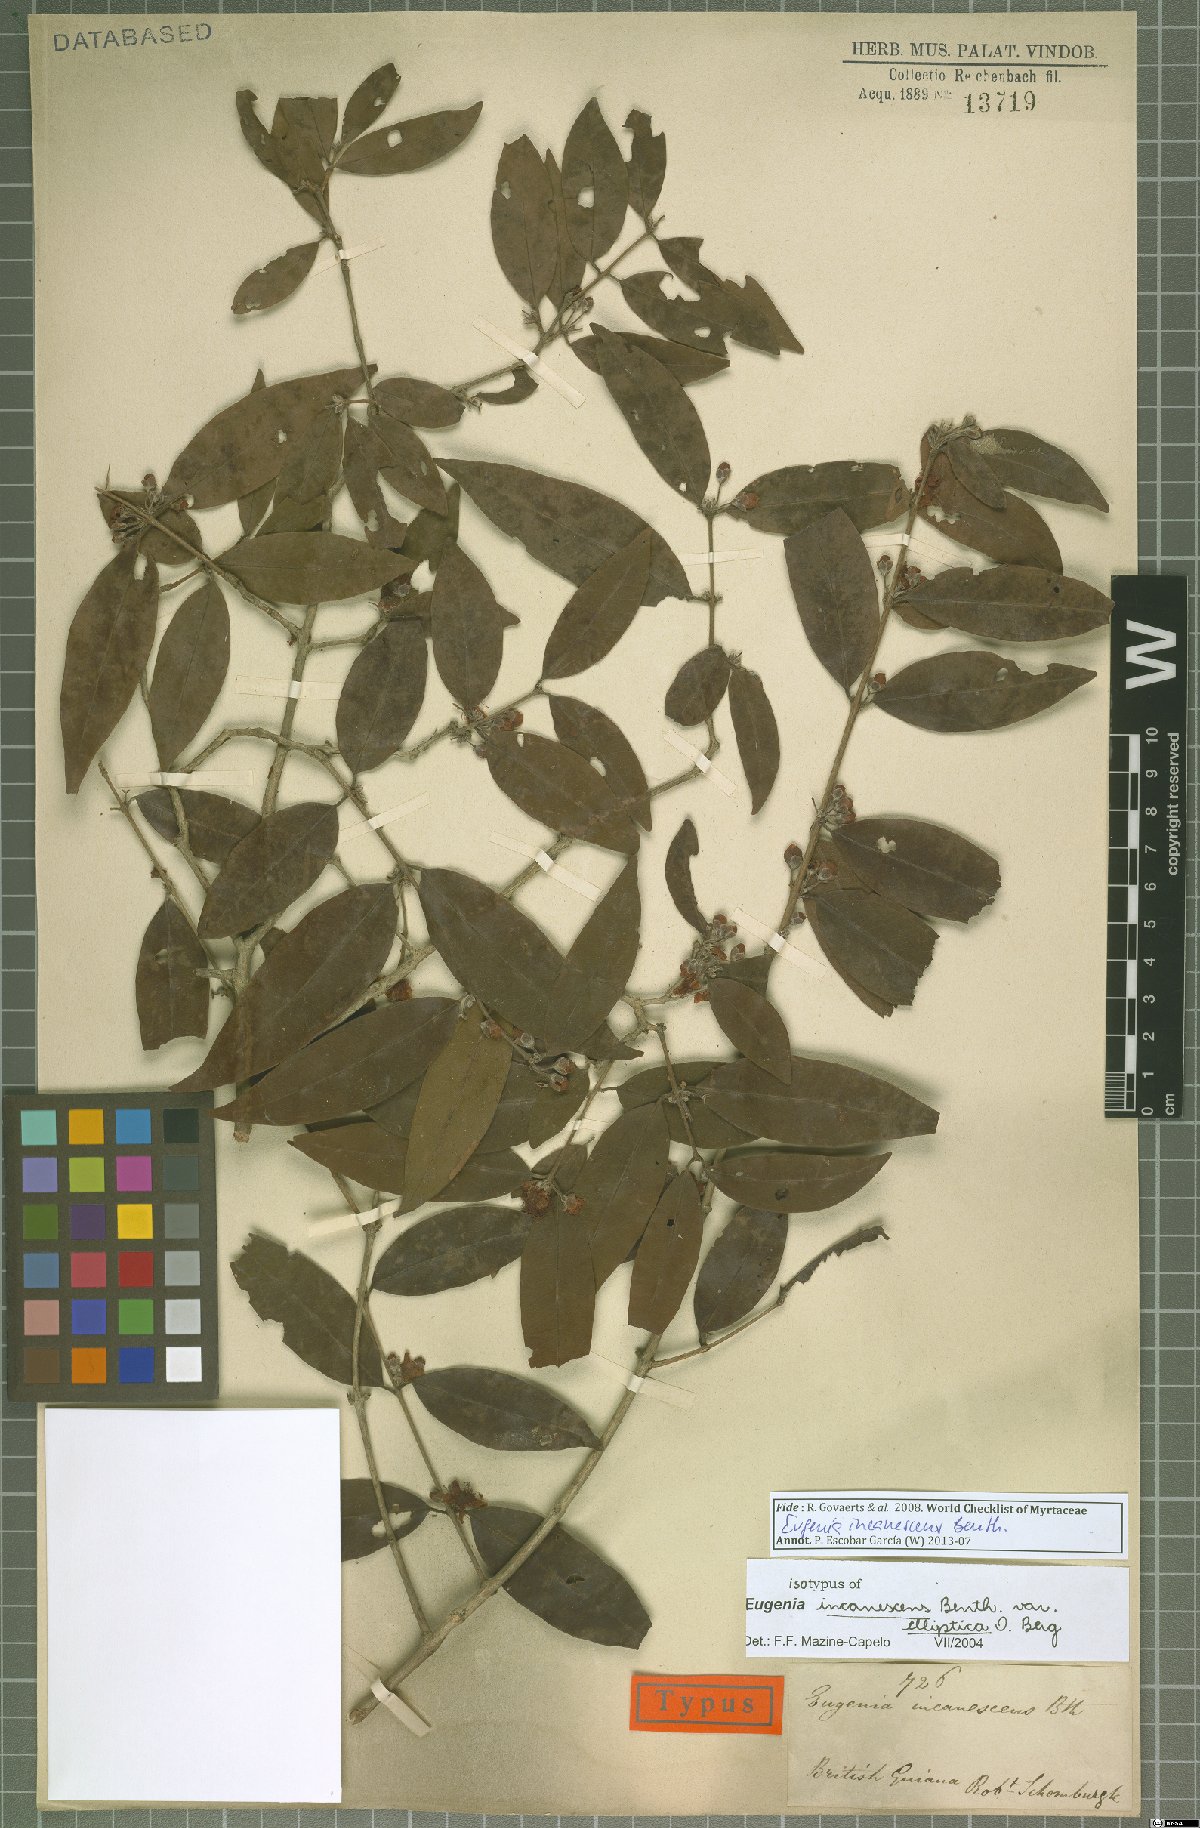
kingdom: Plantae
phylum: Tracheophyta
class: Magnoliopsida
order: Myrtales
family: Myrtaceae
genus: Eugenia
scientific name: Eugenia incanescens
